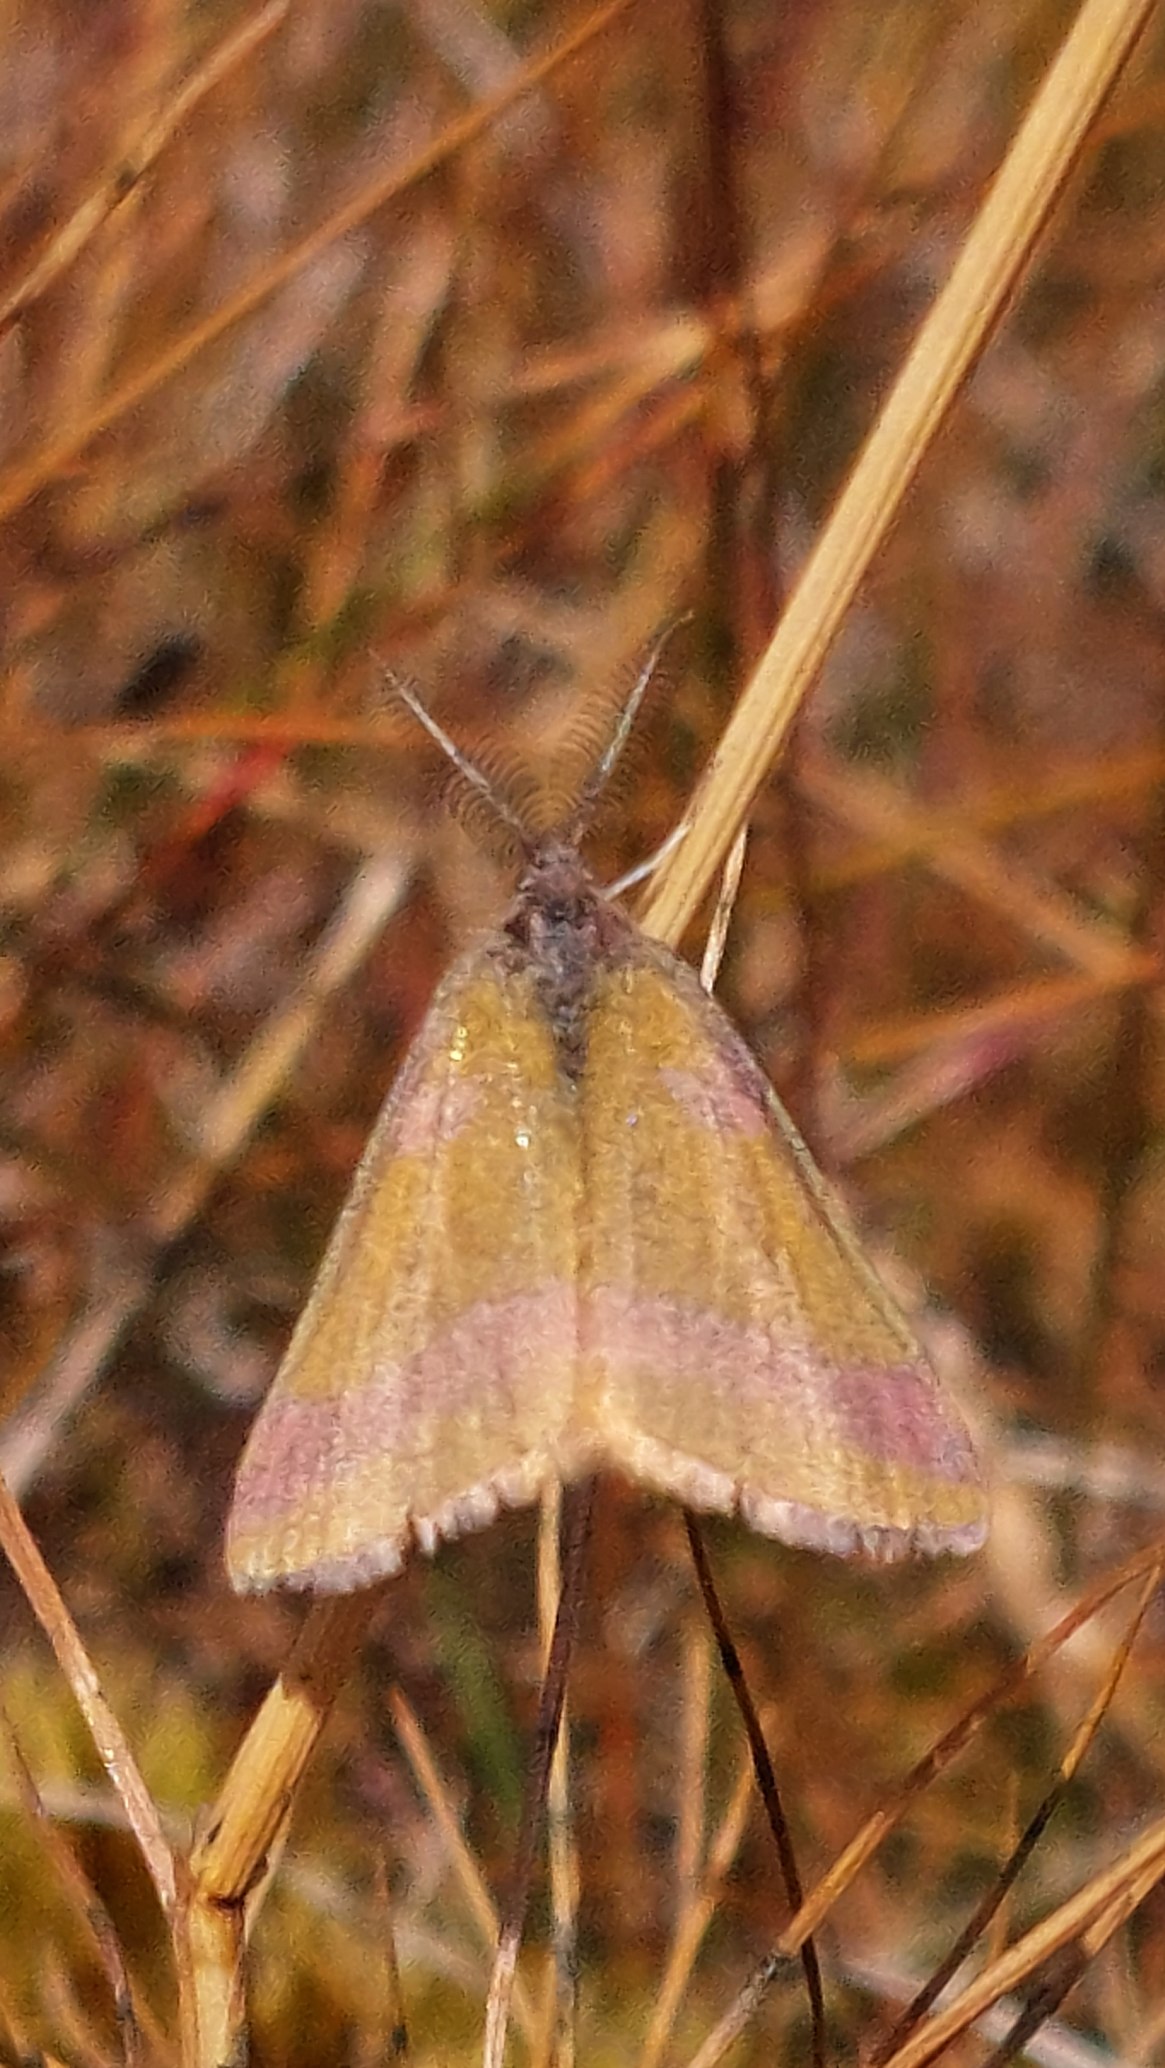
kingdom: Animalia
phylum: Arthropoda
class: Insecta
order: Lepidoptera
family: Geometridae
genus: Lythria
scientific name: Lythria cruentaria
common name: Purpurmåler
